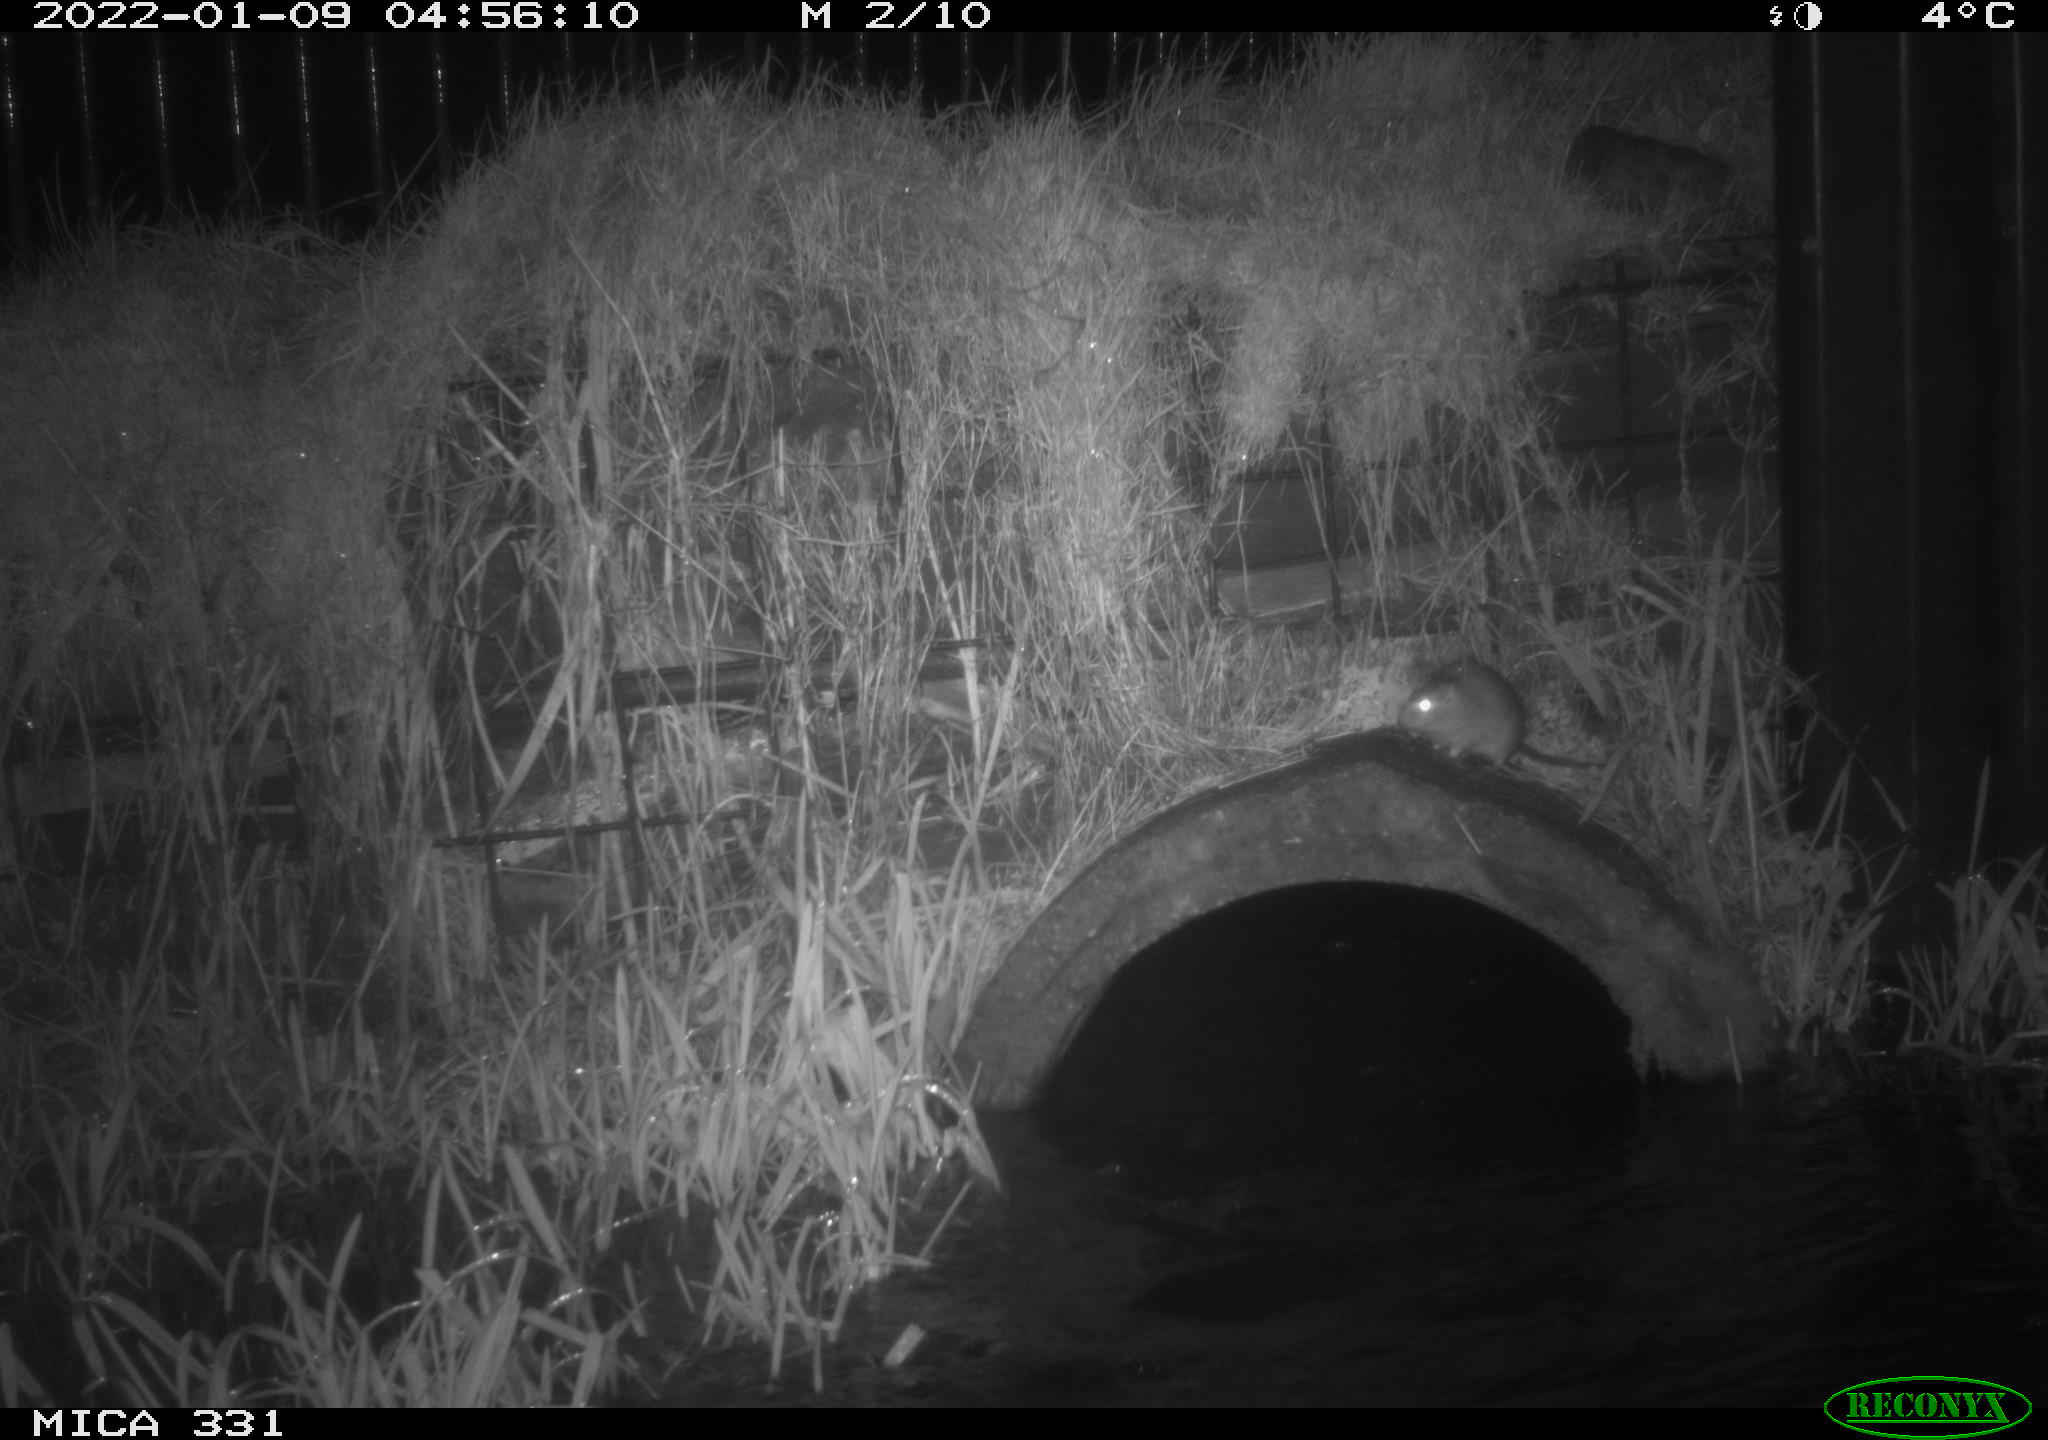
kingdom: Animalia
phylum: Chordata
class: Mammalia
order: Rodentia
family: Muridae
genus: Rattus
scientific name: Rattus norvegicus
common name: Brown rat
